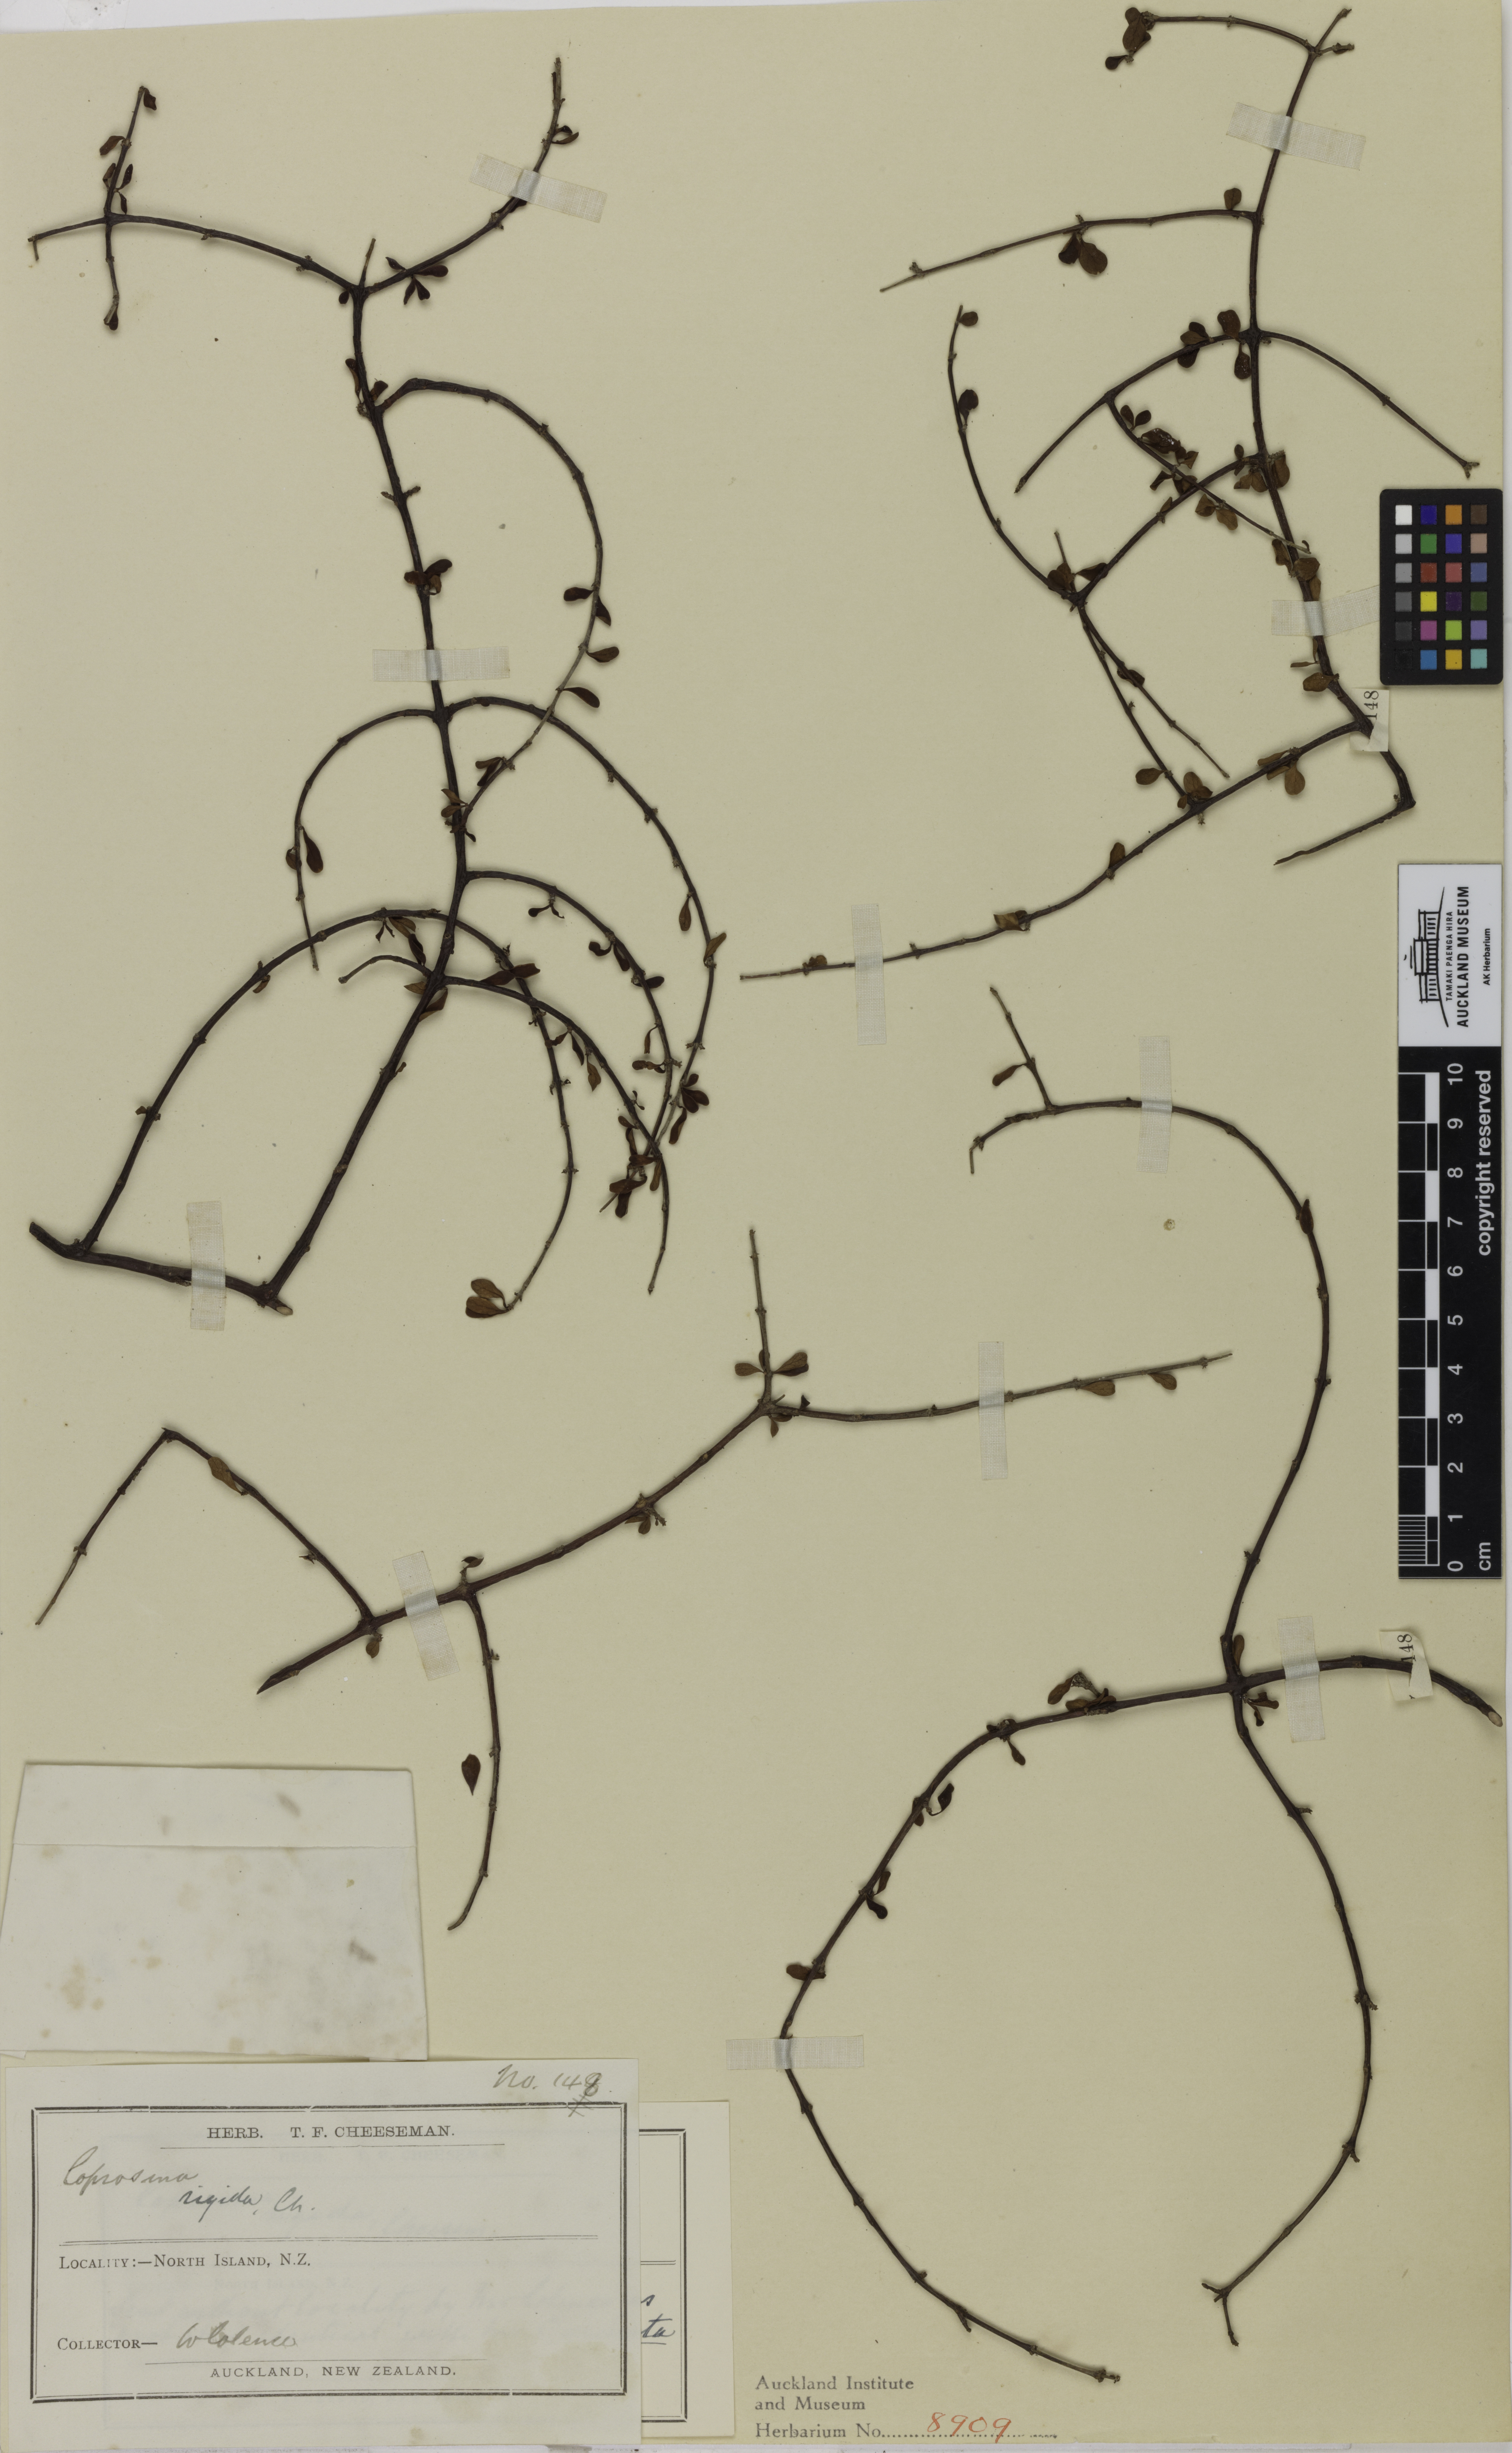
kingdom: Plantae
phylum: Tracheophyta
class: Magnoliopsida
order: Gentianales
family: Rubiaceae
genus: Coprosma
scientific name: Coprosma rigida
